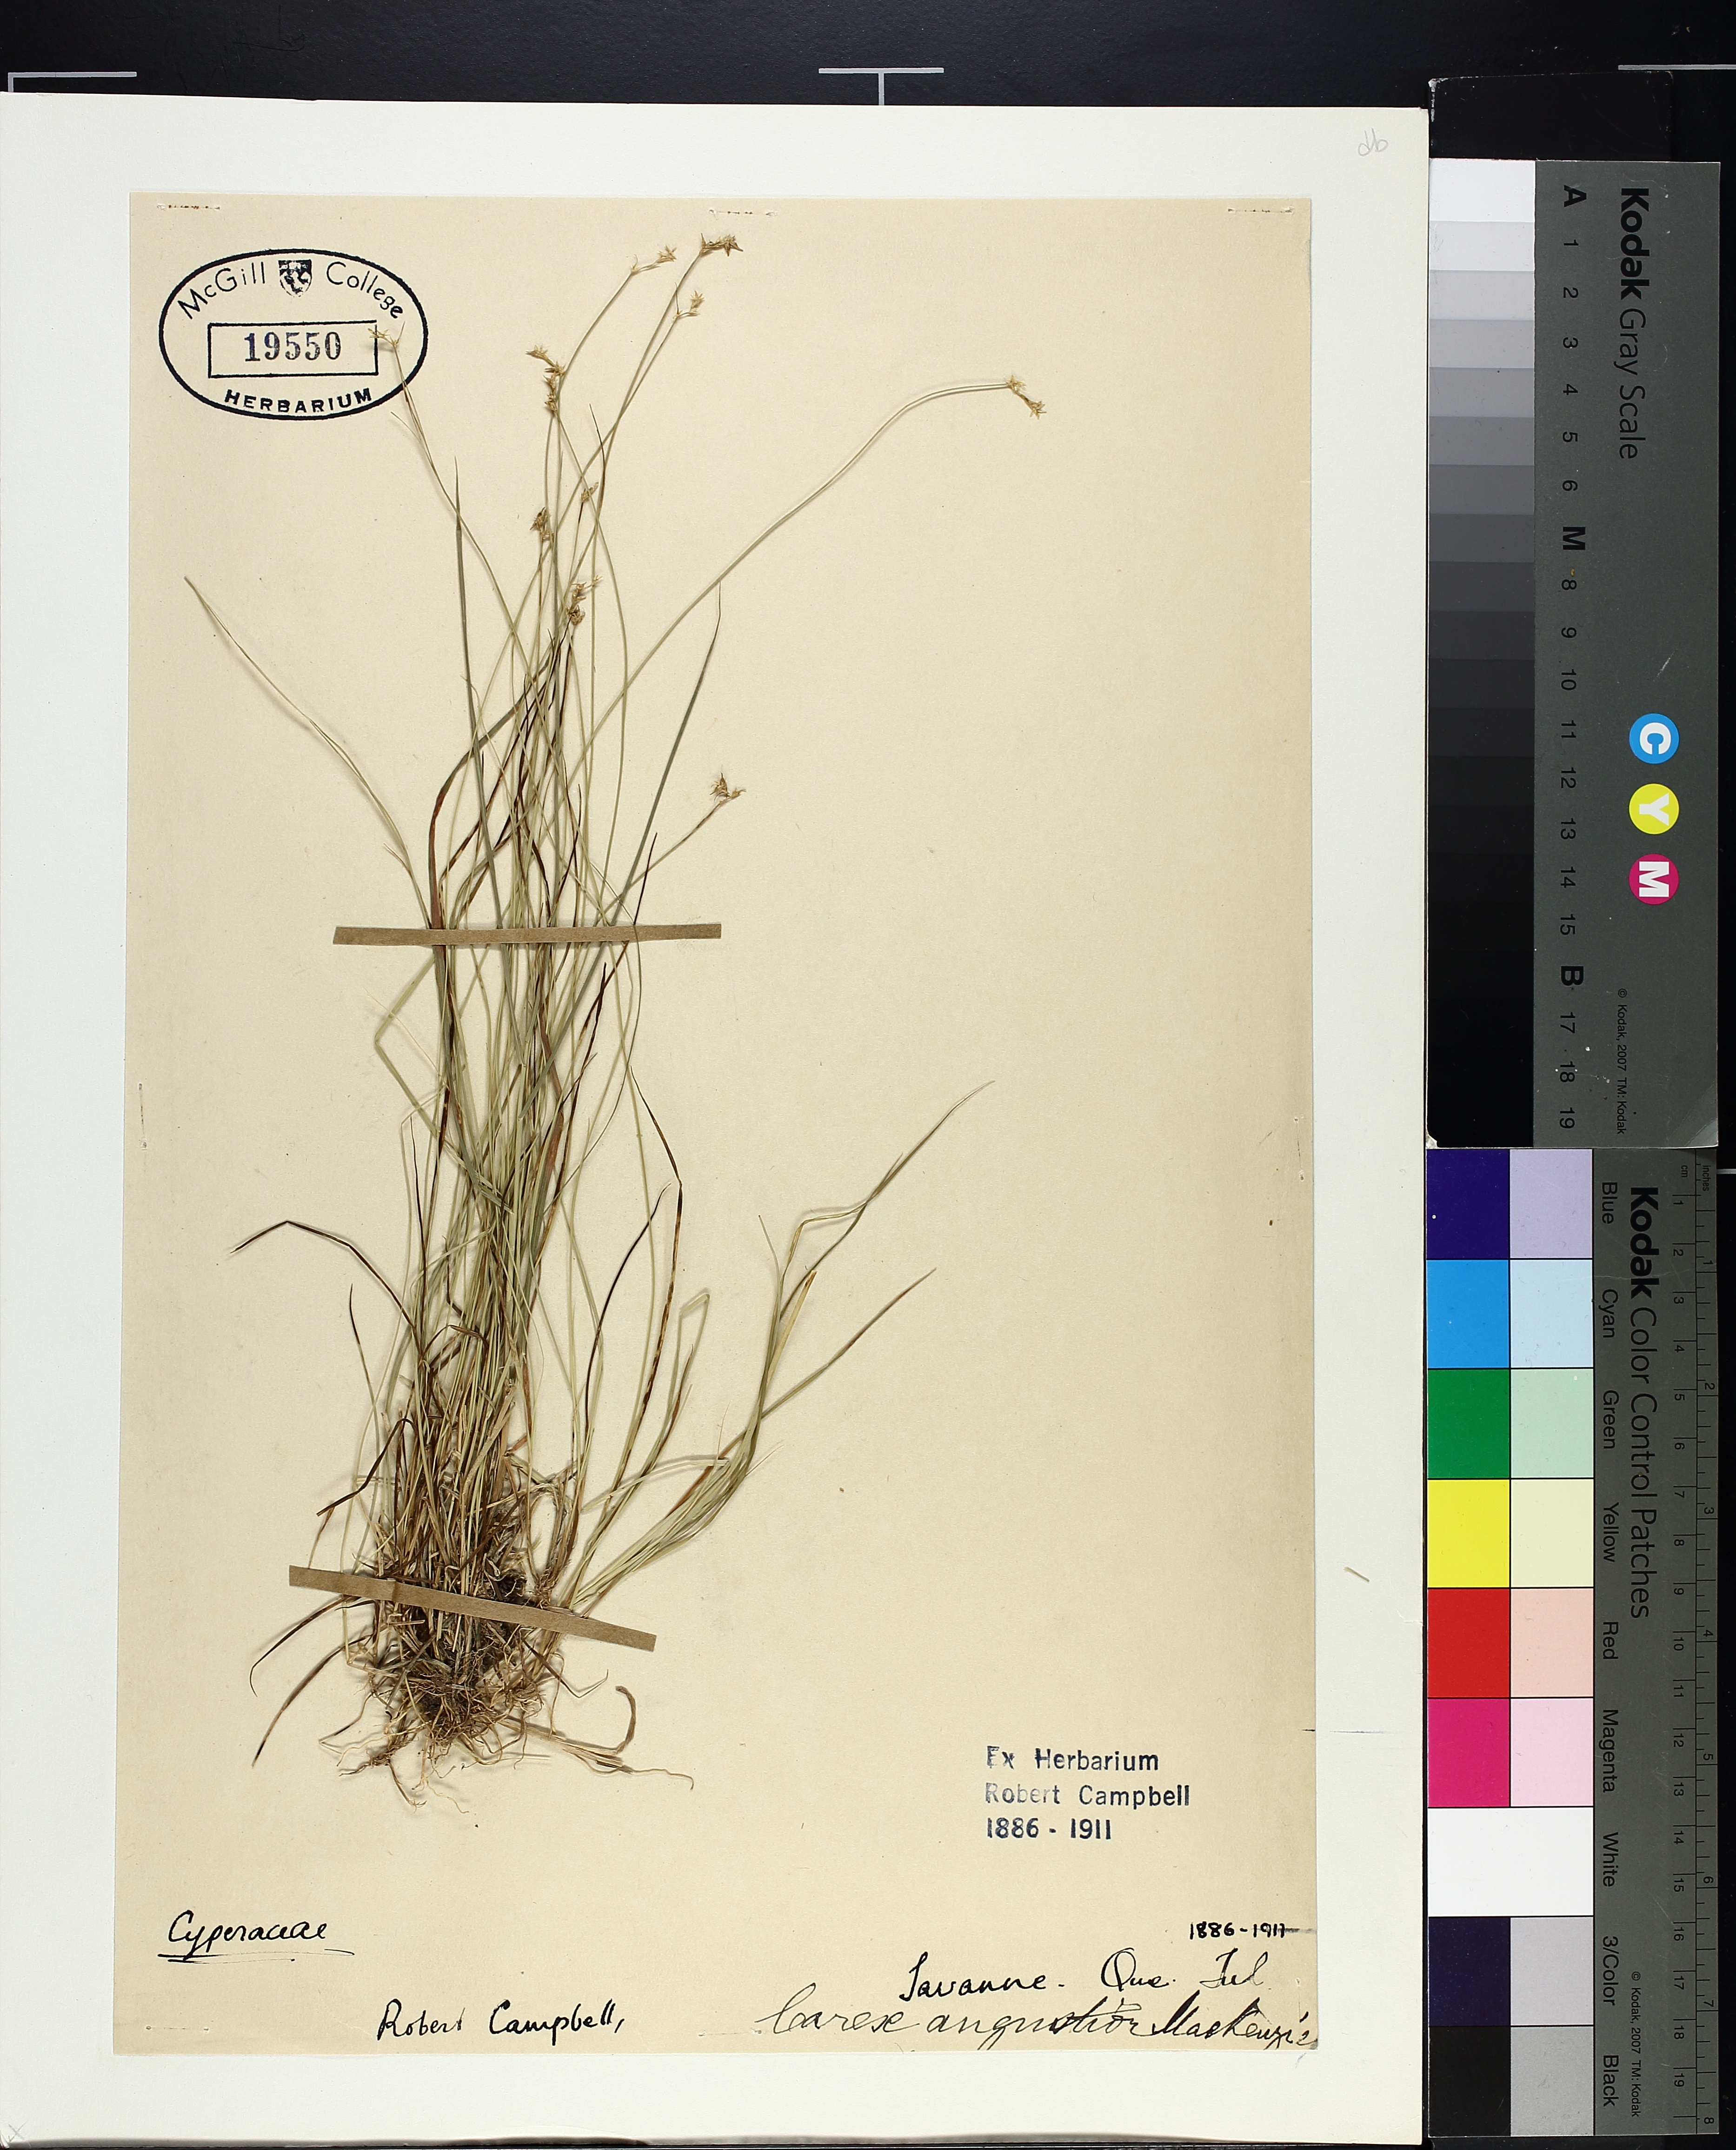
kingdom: Plantae
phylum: Tracheophyta
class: Liliopsida
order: Poales
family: Cyperaceae
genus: Carex
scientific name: Carex echinata
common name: Star sedge
